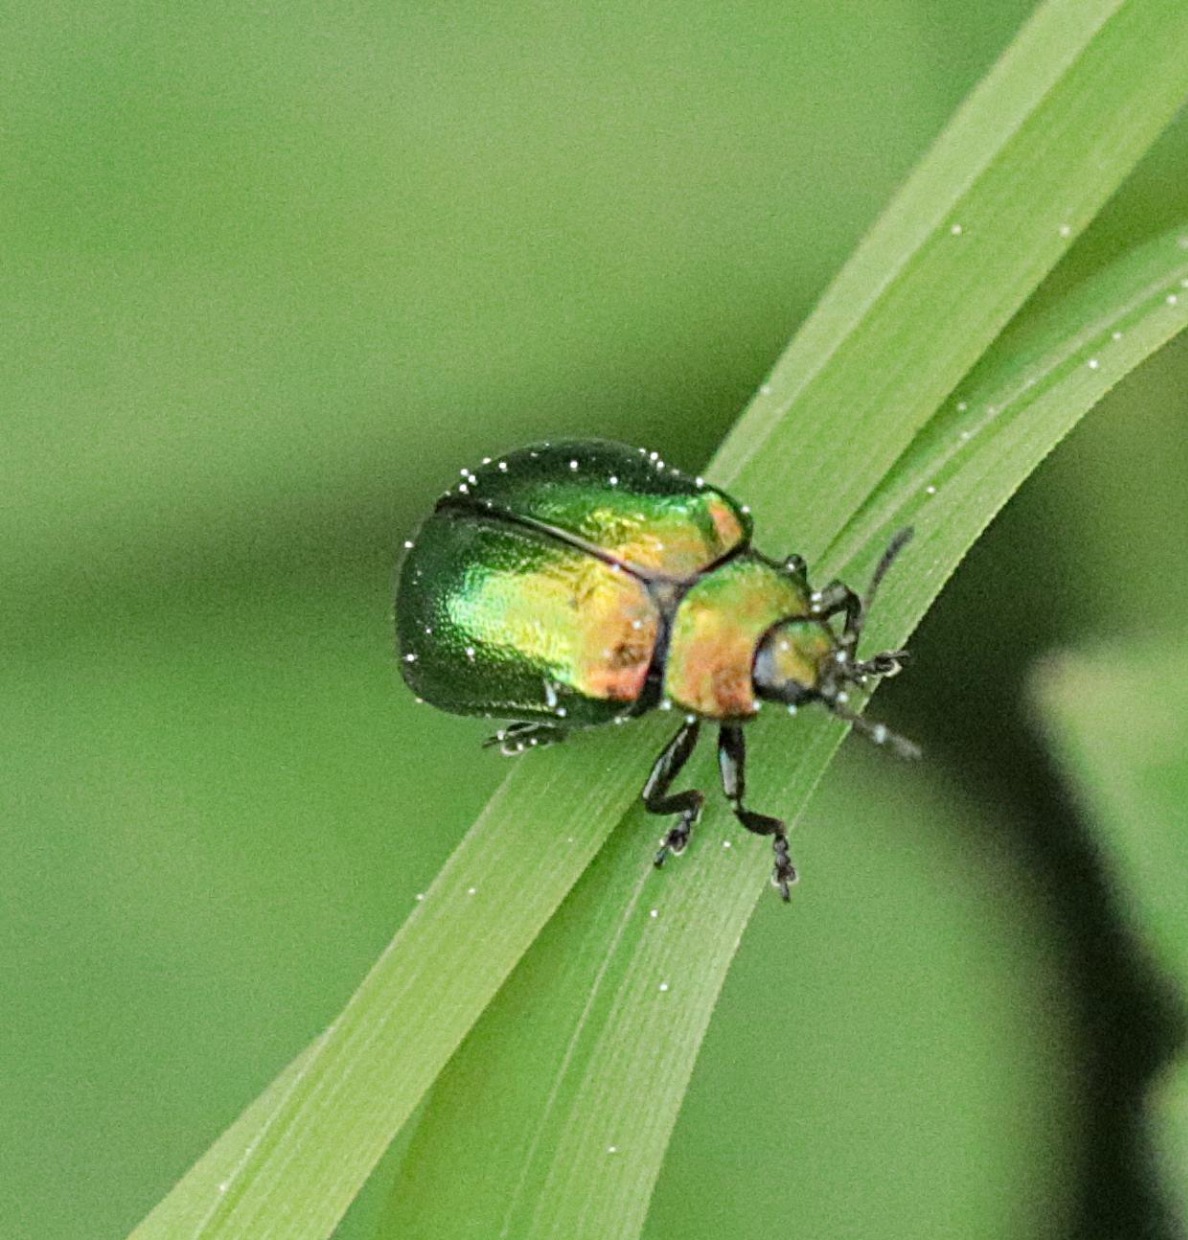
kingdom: Animalia
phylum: Arthropoda
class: Insecta
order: Coleoptera
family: Chrysomelidae
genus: Plagiosterna
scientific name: Plagiosterna aenea
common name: Blågrøn ellebladbille
